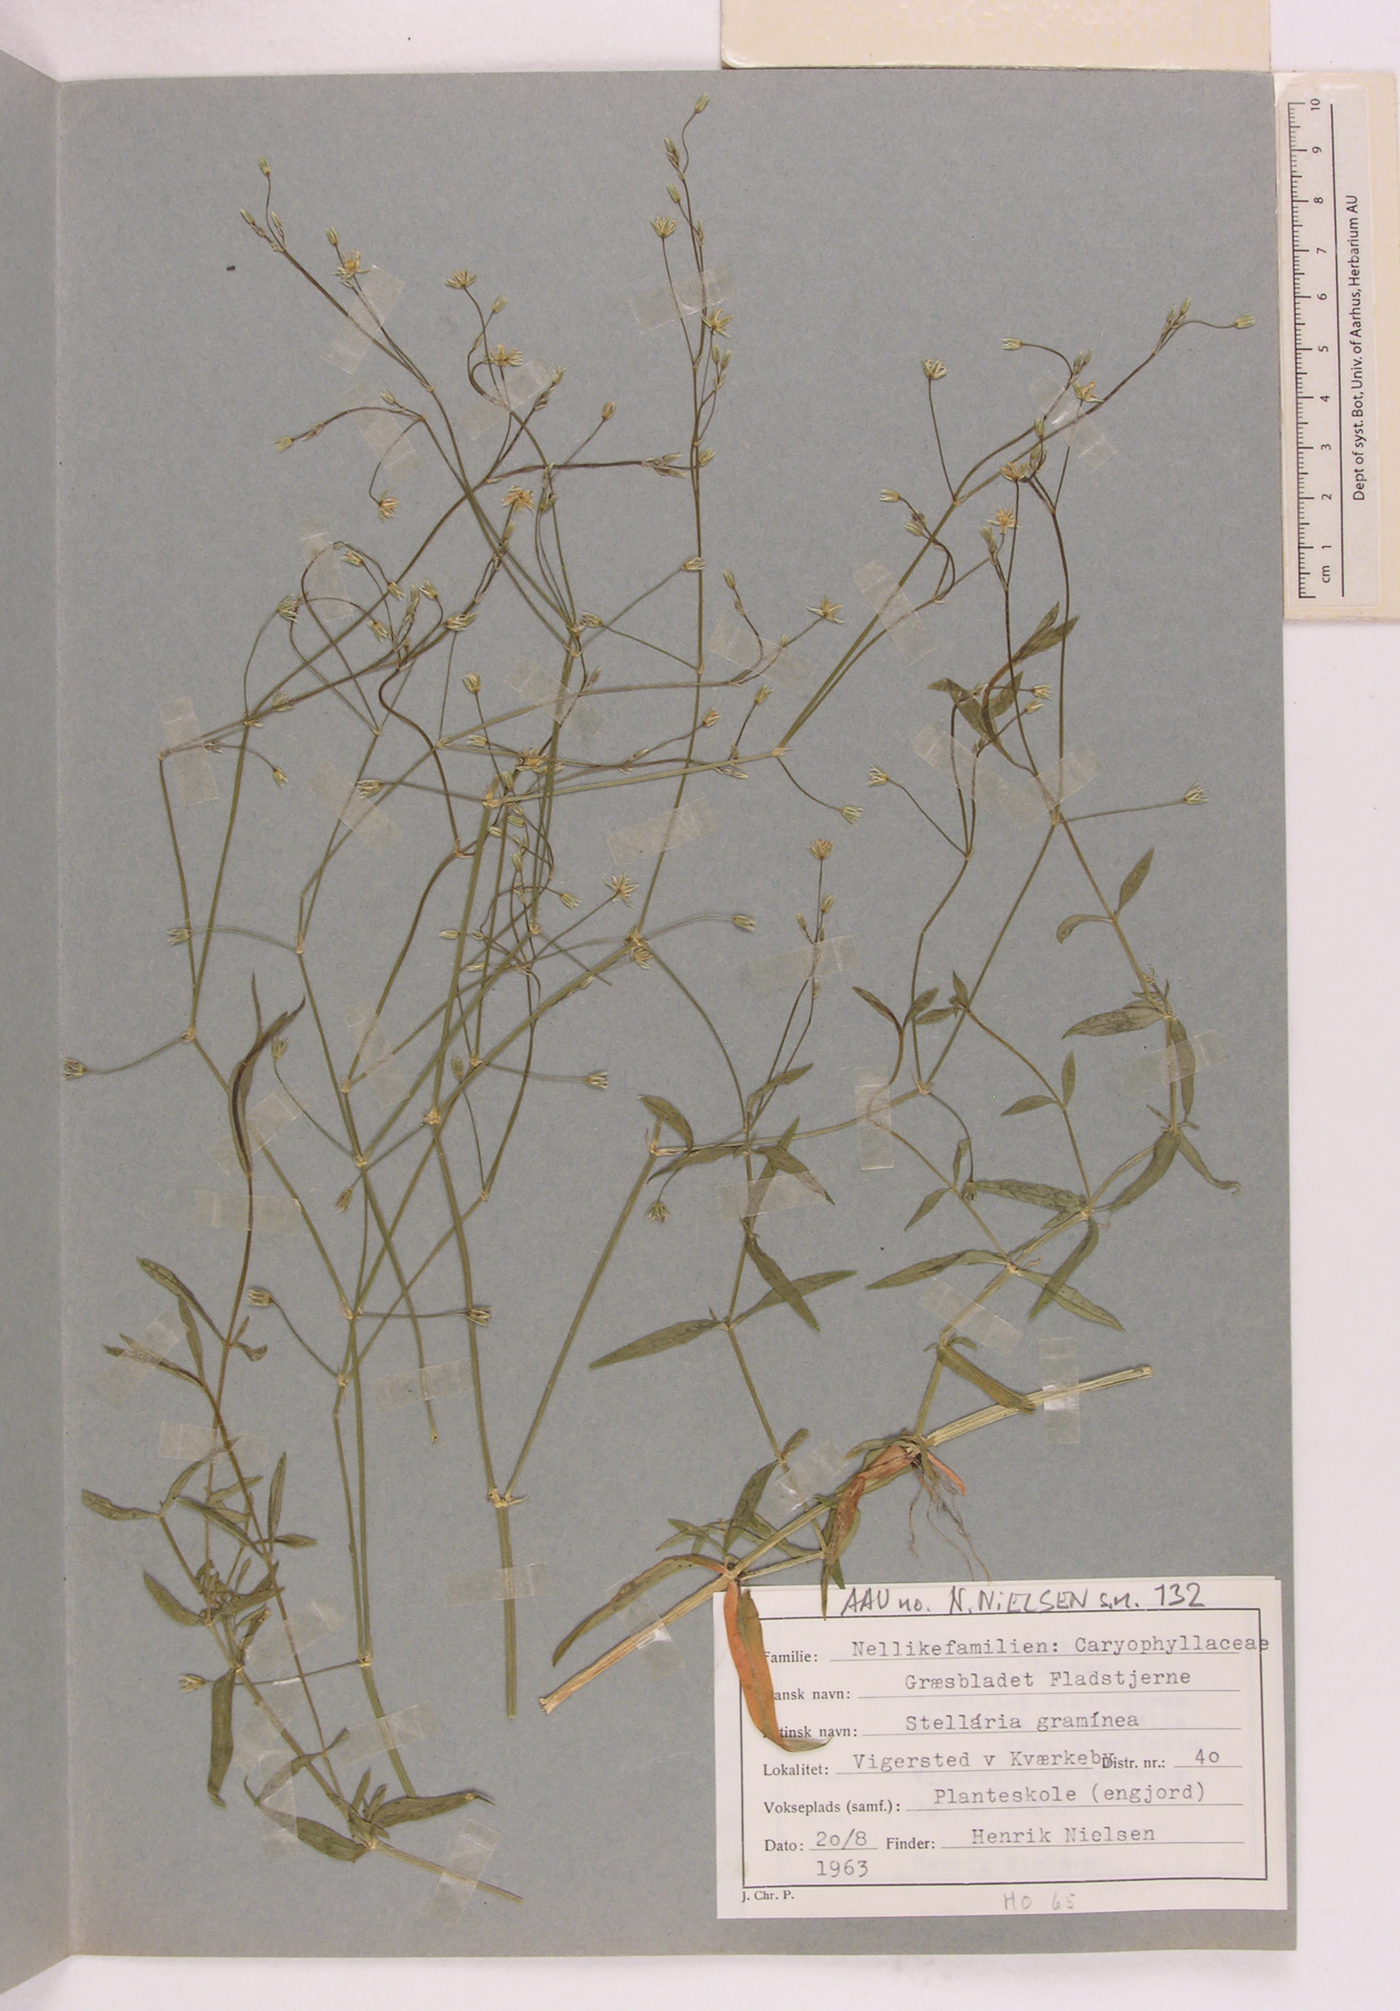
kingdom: Plantae
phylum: Tracheophyta
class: Magnoliopsida
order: Caryophyllales
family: Caryophyllaceae
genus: Stellaria
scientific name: Stellaria graminea
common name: Grass-like starwort
